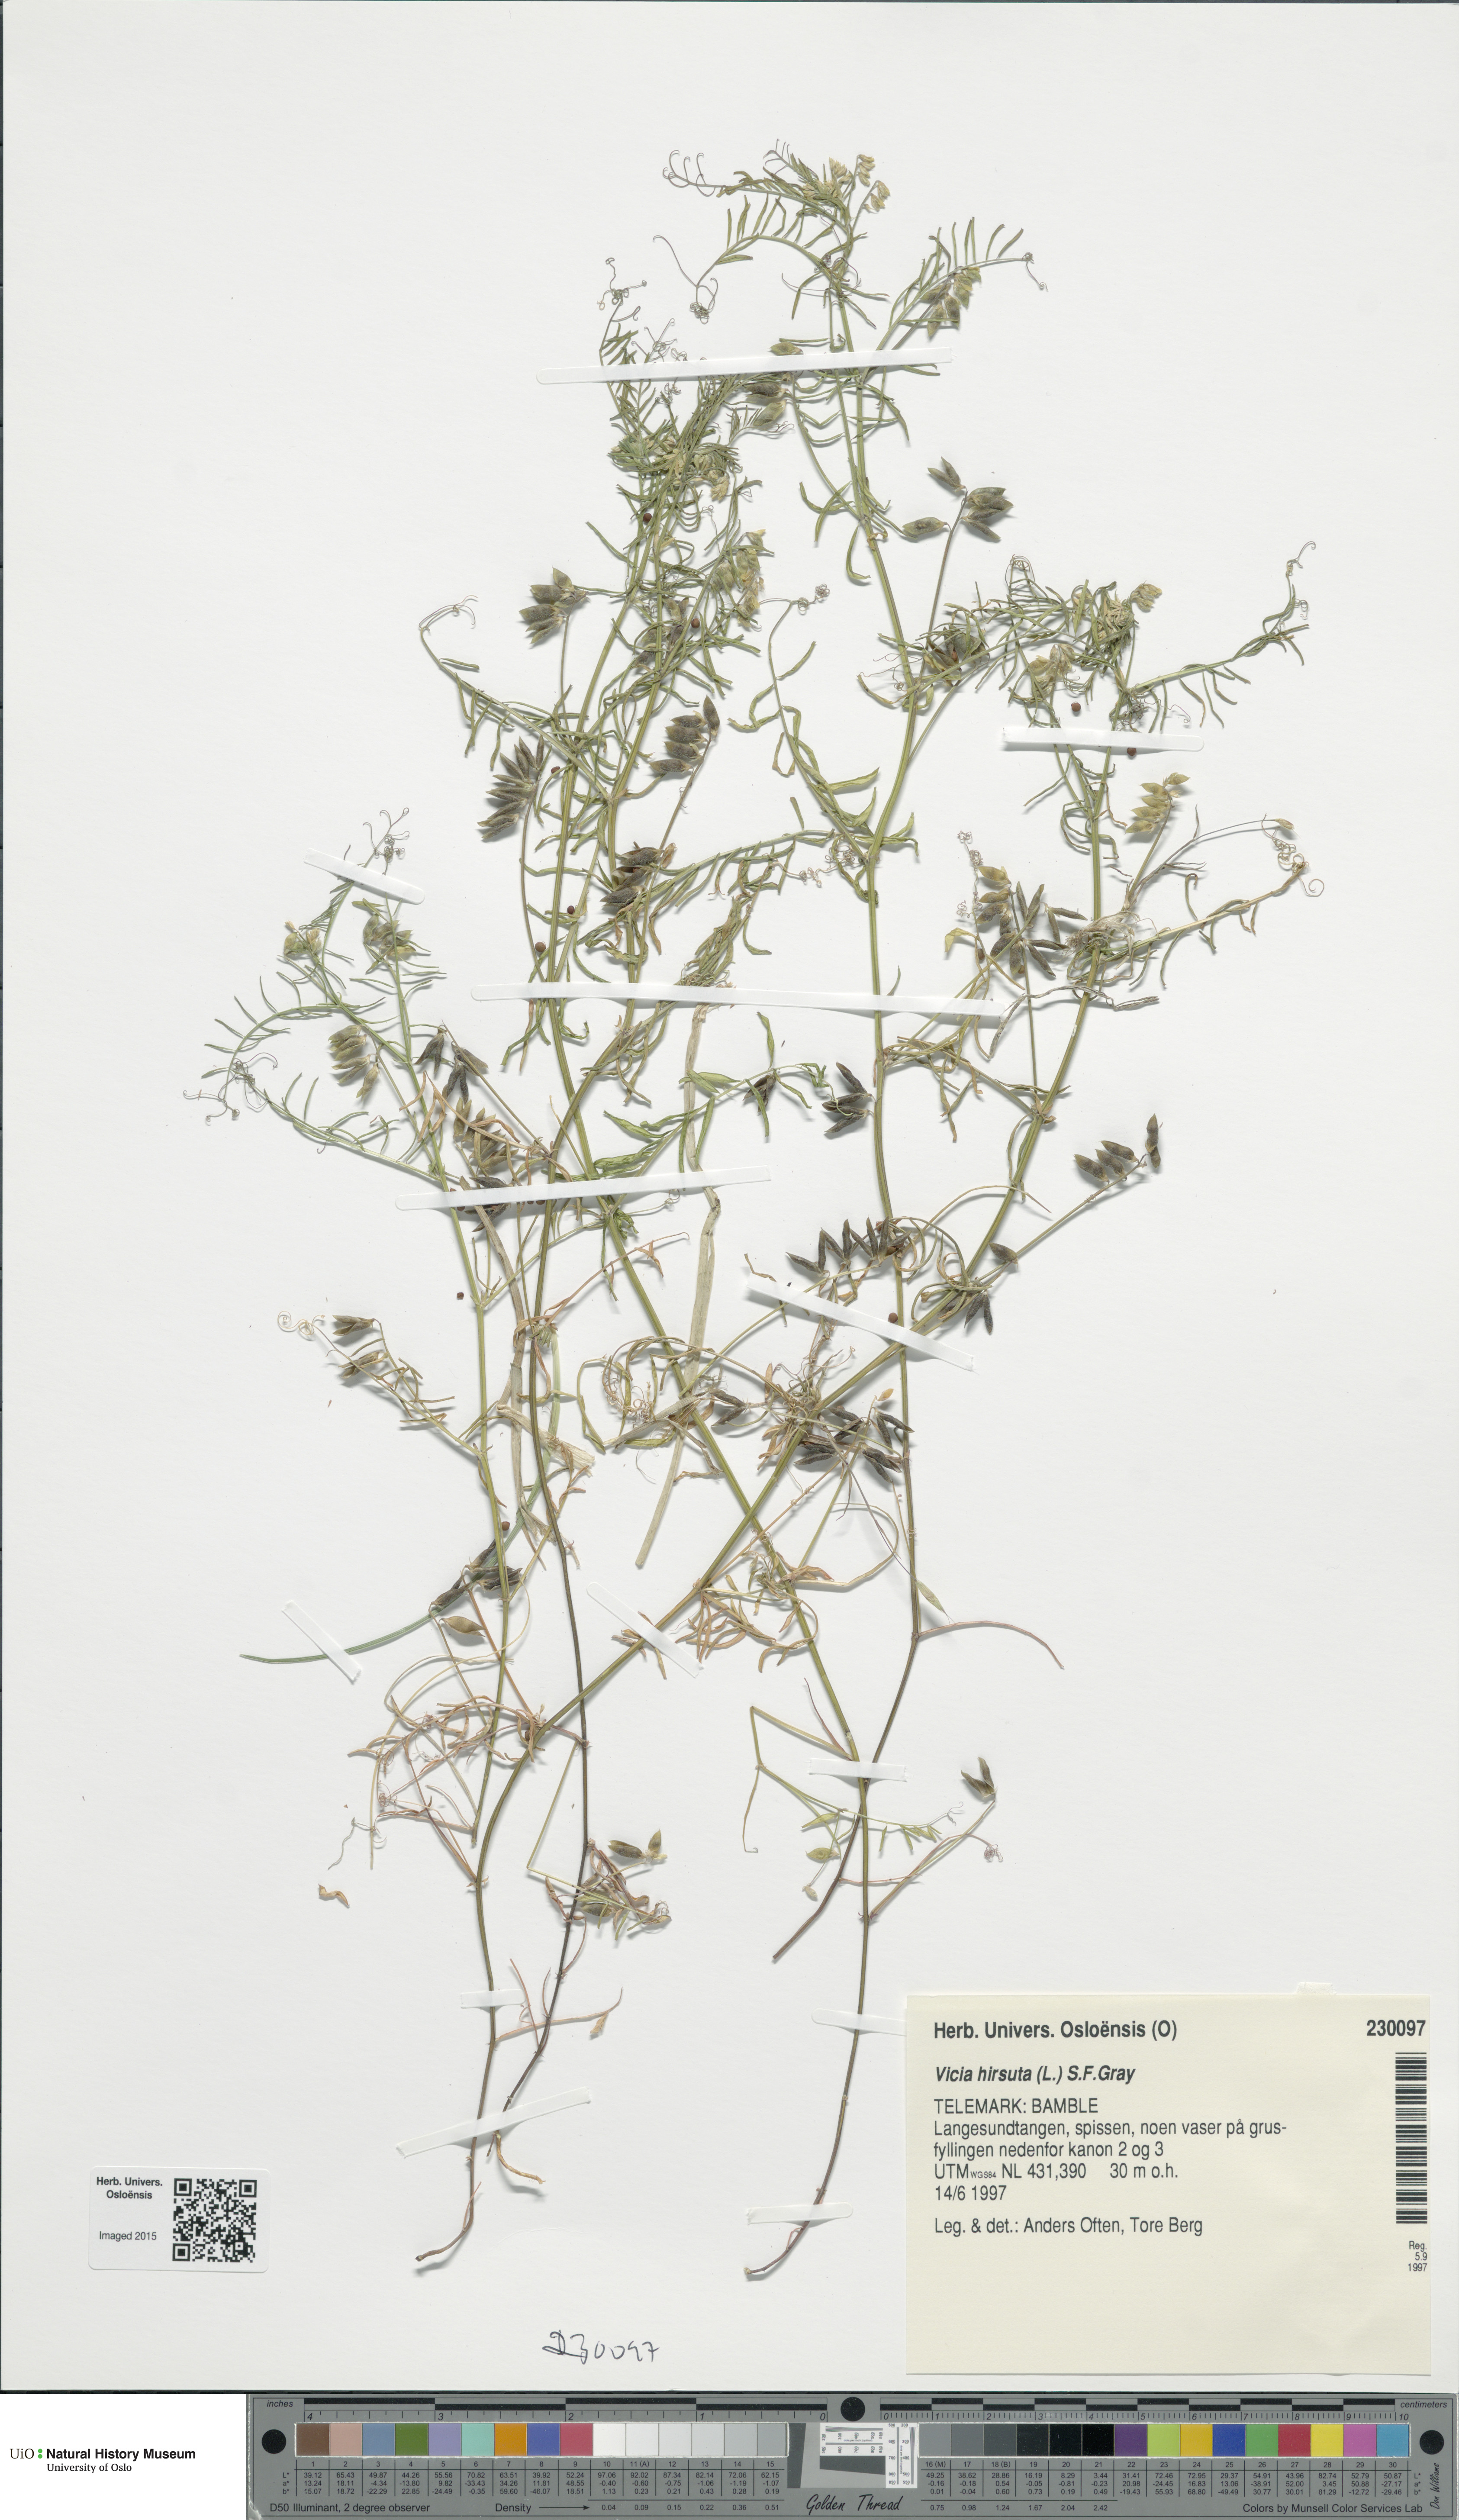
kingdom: Plantae
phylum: Tracheophyta
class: Magnoliopsida
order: Fabales
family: Fabaceae
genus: Vicia
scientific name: Vicia hirsuta
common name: Tiny vetch
